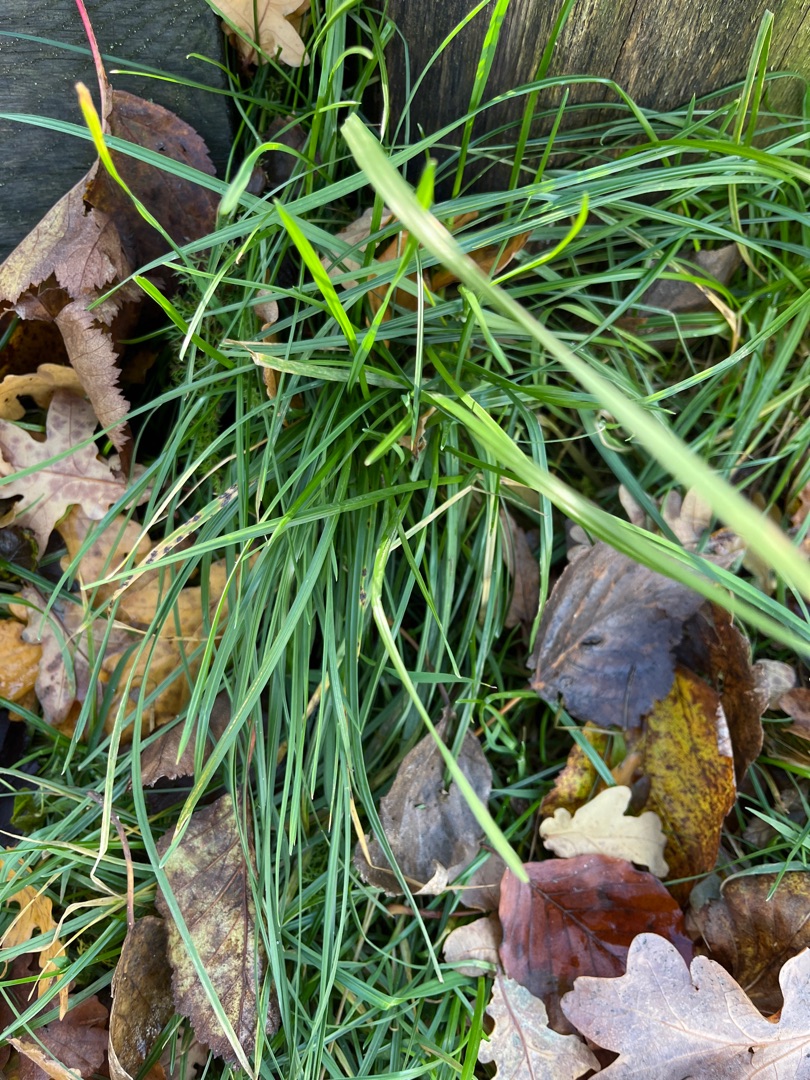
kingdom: Plantae
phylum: Tracheophyta
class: Liliopsida
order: Poales
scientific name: Poales
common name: Græsordenen
